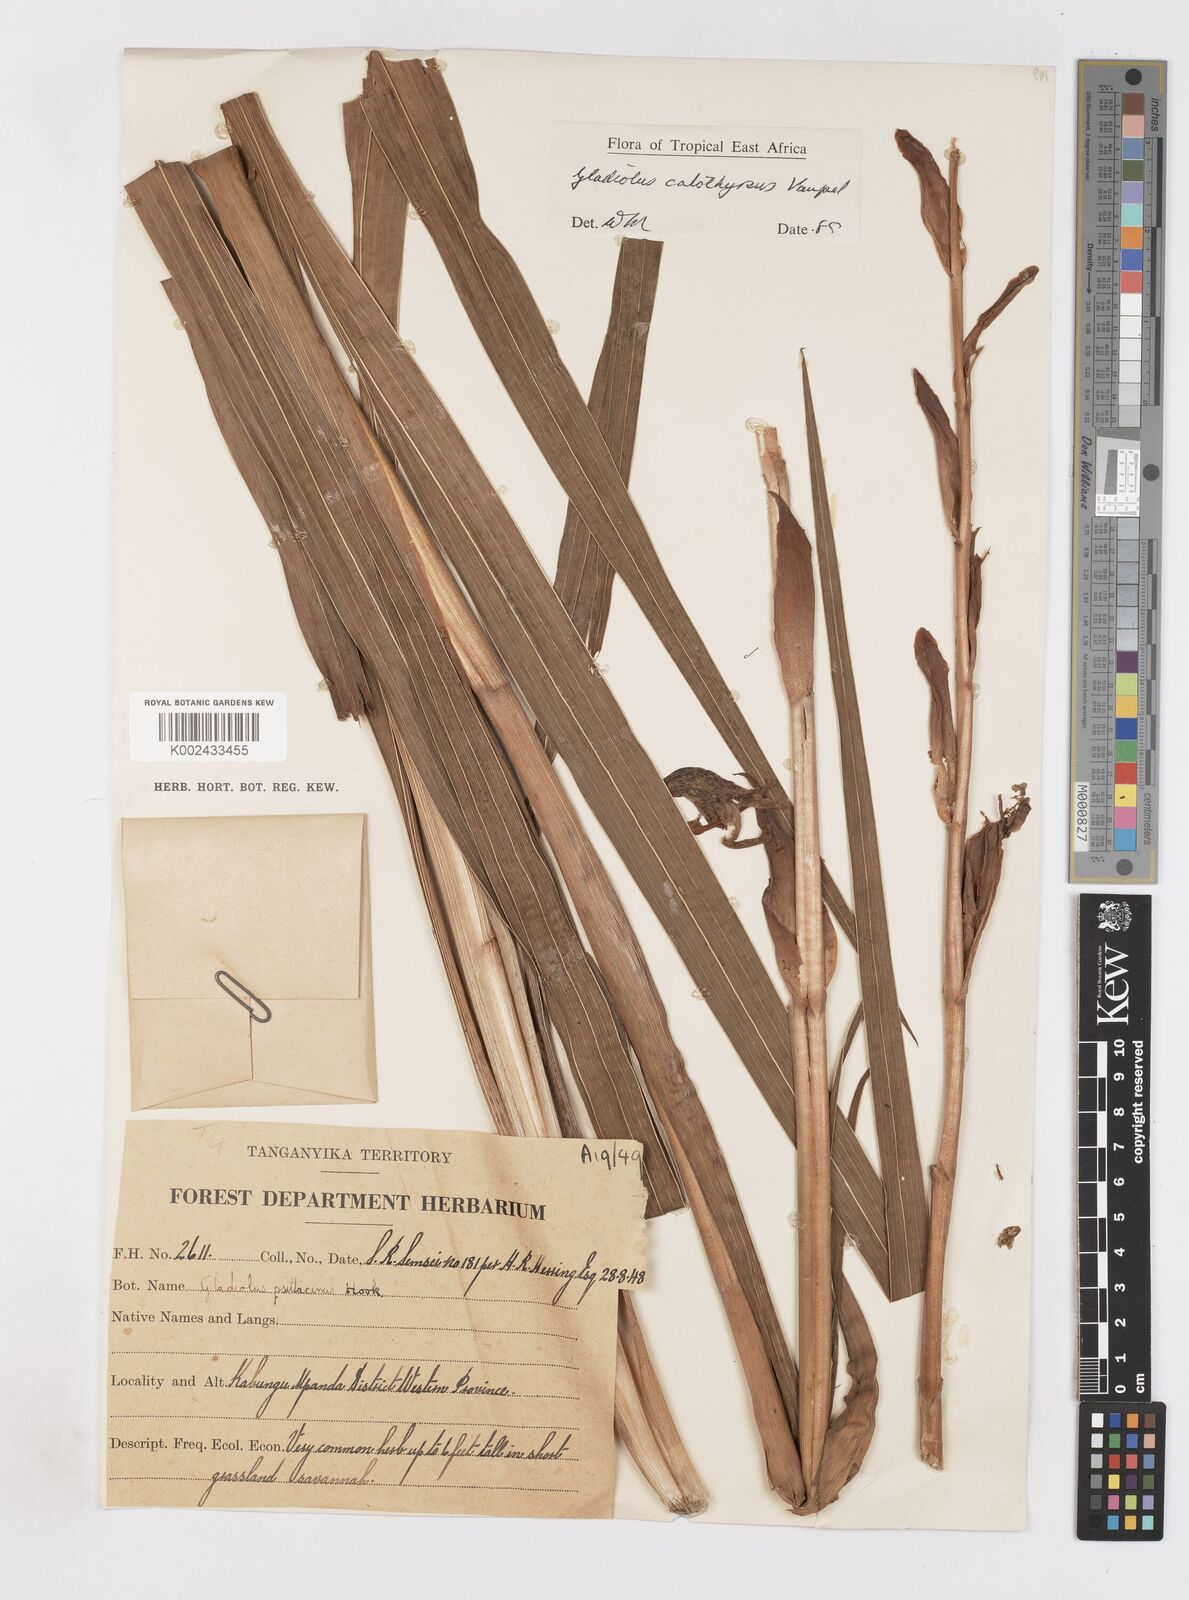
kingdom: Plantae
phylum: Tracheophyta
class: Liliopsida
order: Asparagales
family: Iridaceae
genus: Gladiolus
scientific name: Gladiolus dalenii
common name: Cornflag
